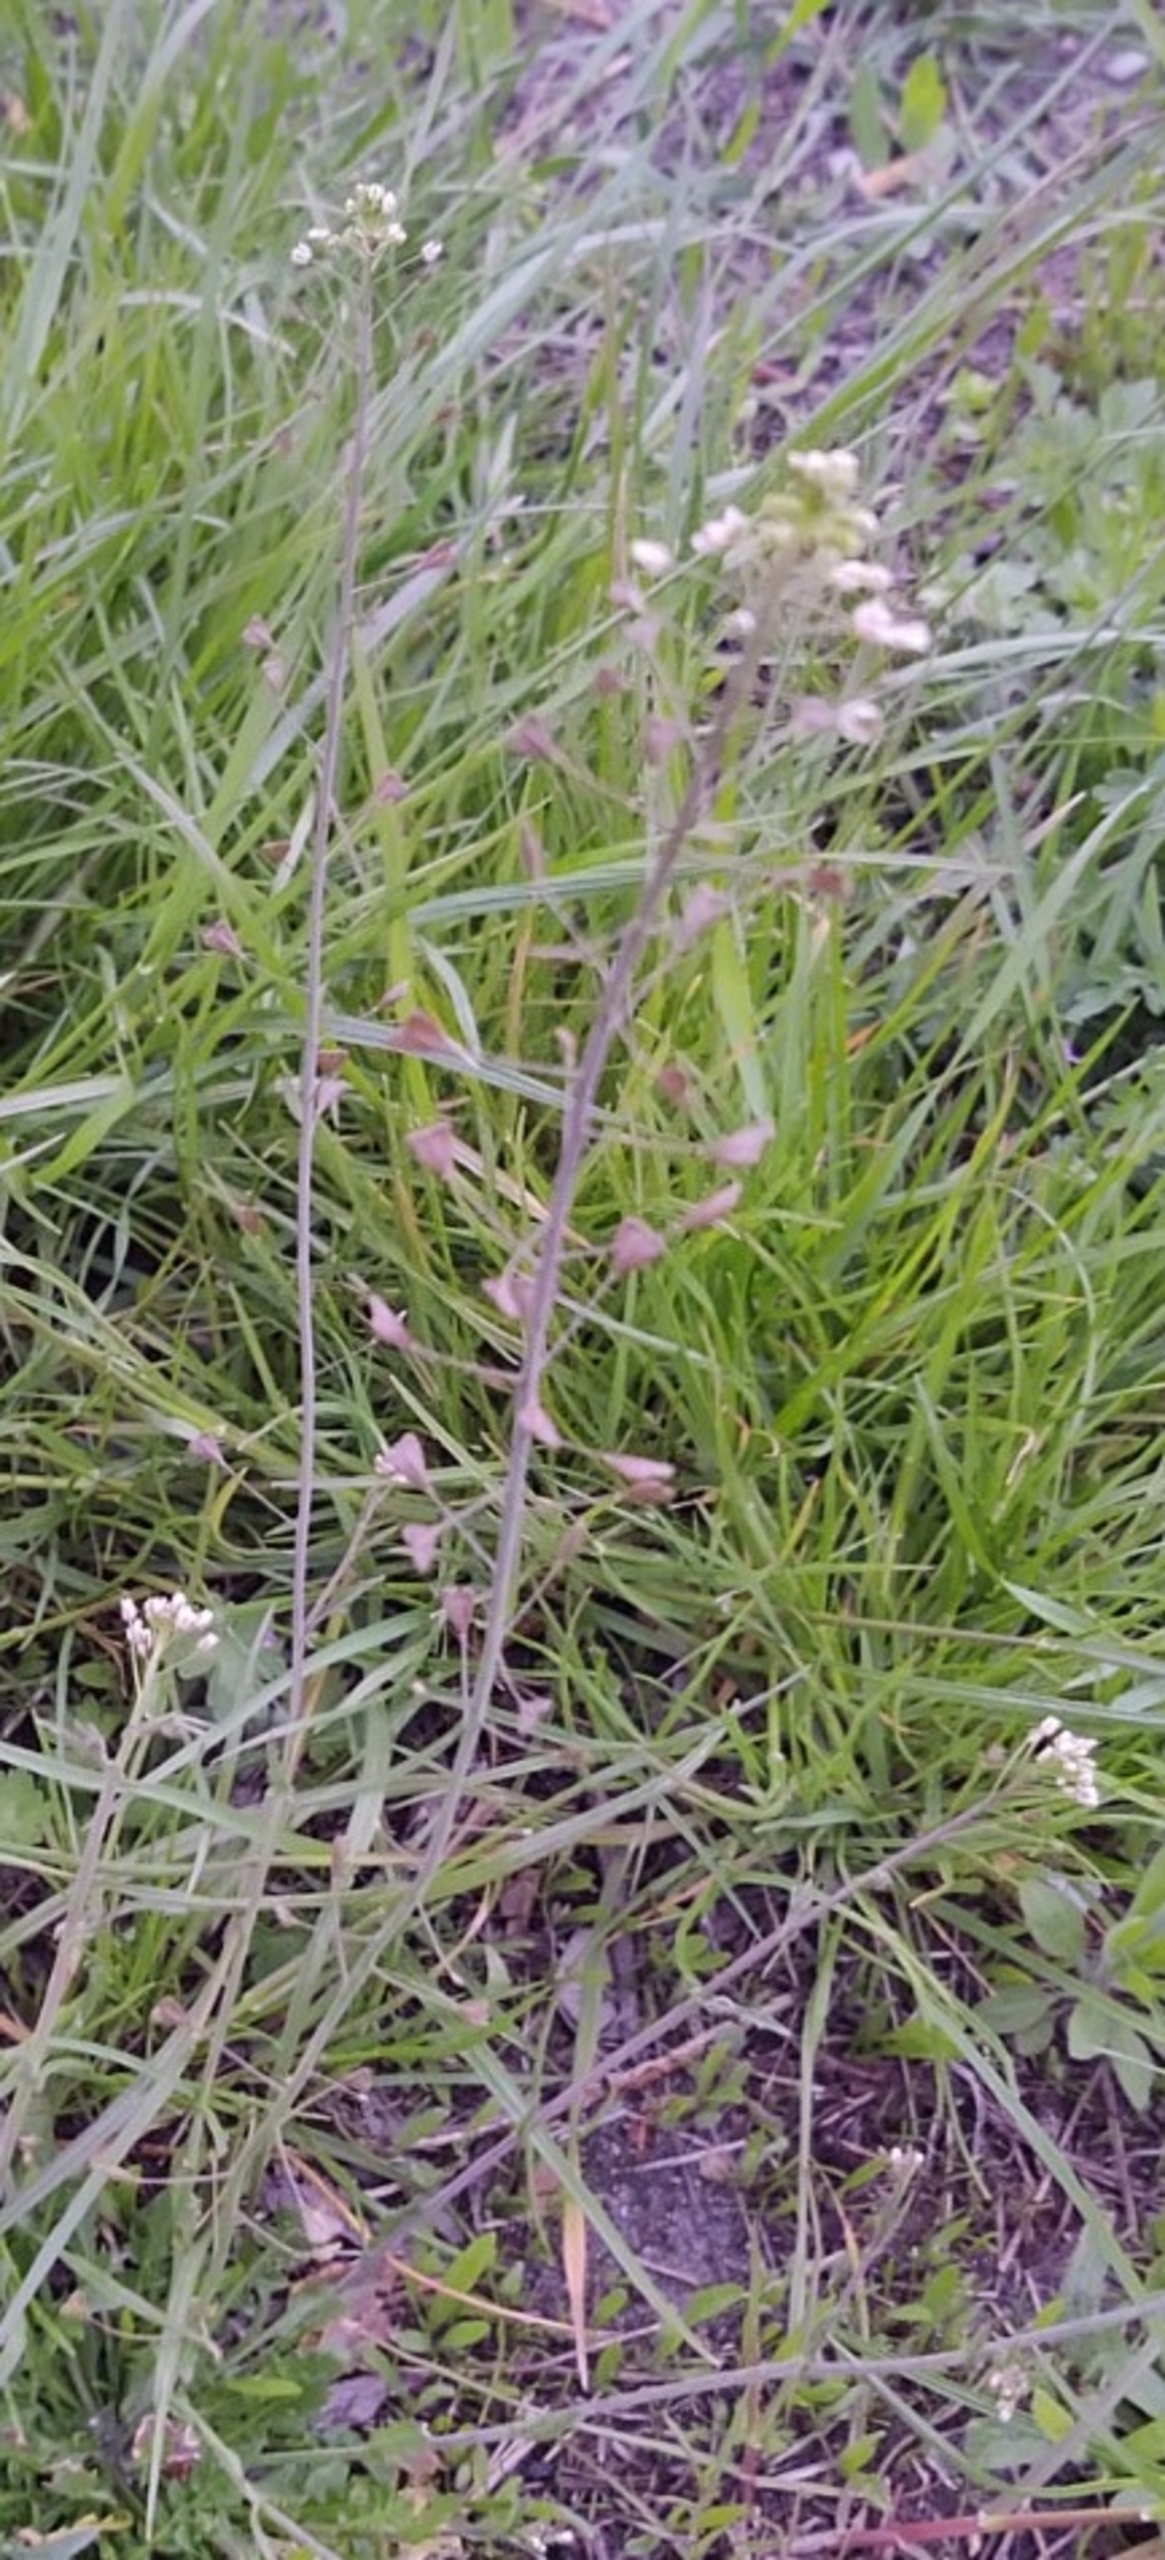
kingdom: Plantae
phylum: Tracheophyta
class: Magnoliopsida
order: Brassicales
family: Brassicaceae
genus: Capsella
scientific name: Capsella bursa-pastoris
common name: Hyrdetaske
